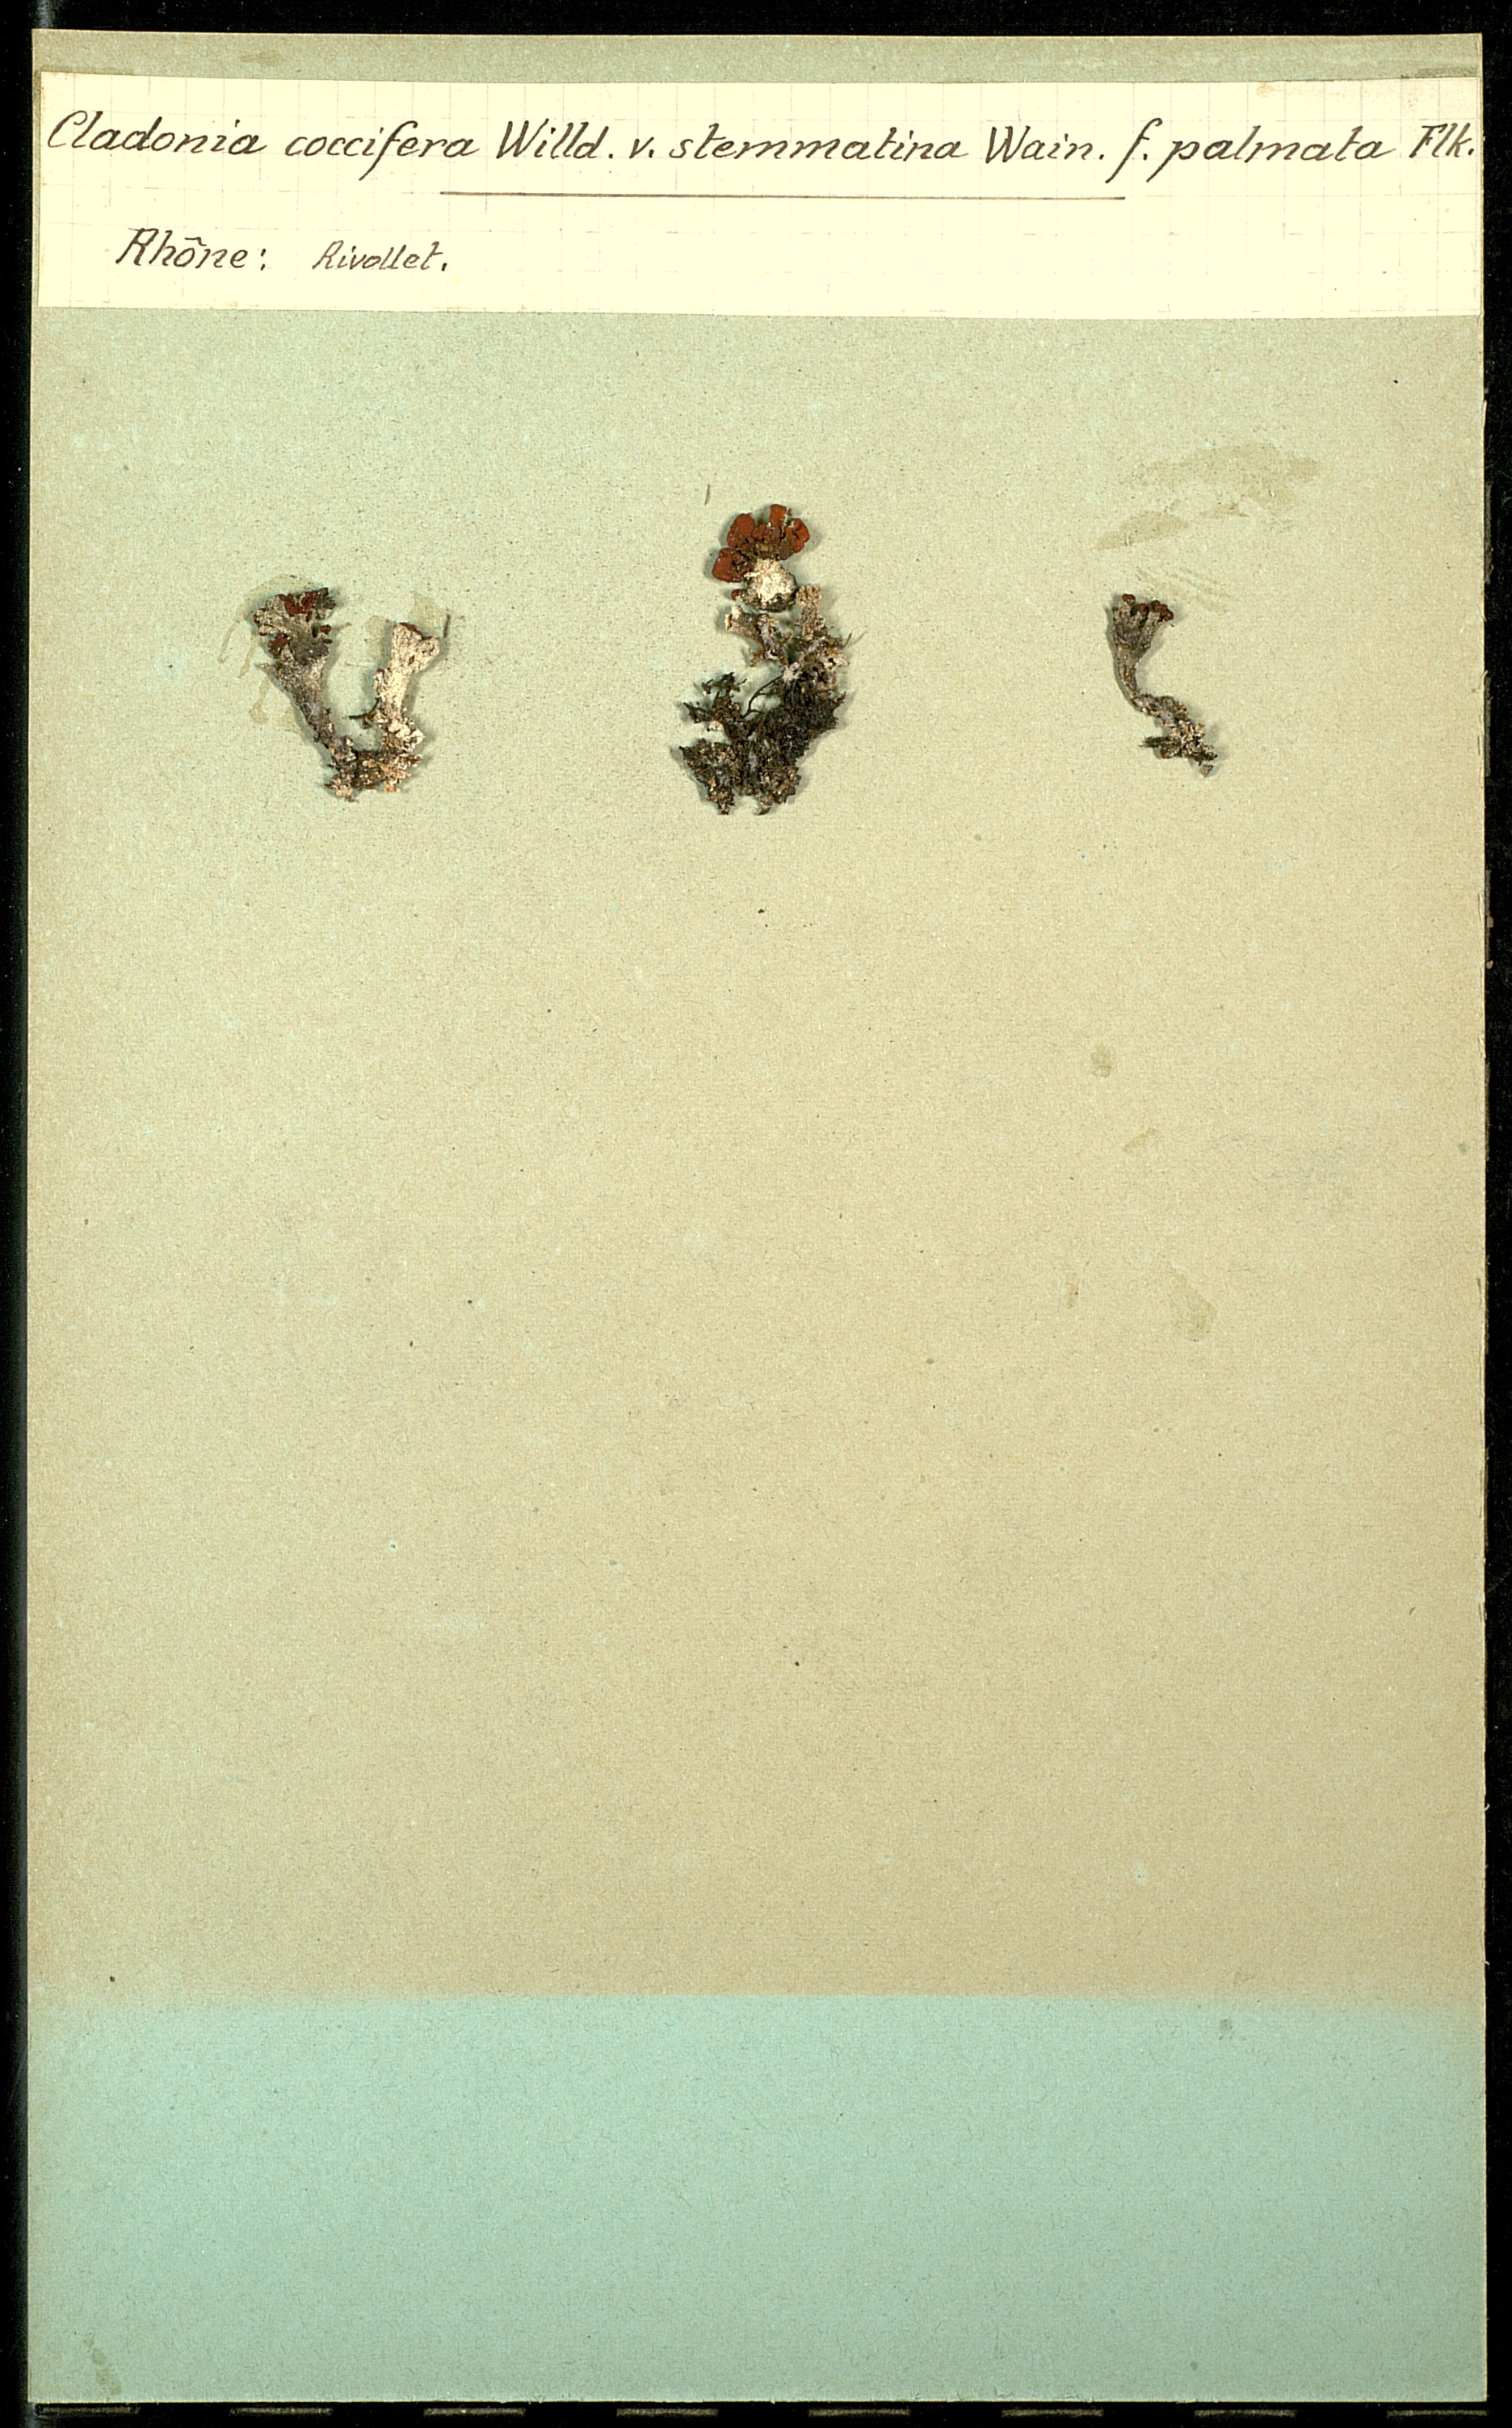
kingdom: Fungi
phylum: Ascomycota
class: Lecanoromycetes
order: Lecanorales
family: Cladoniaceae
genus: Cladonia
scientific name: Cladonia coccifera
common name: Scarlet-cup lichen
